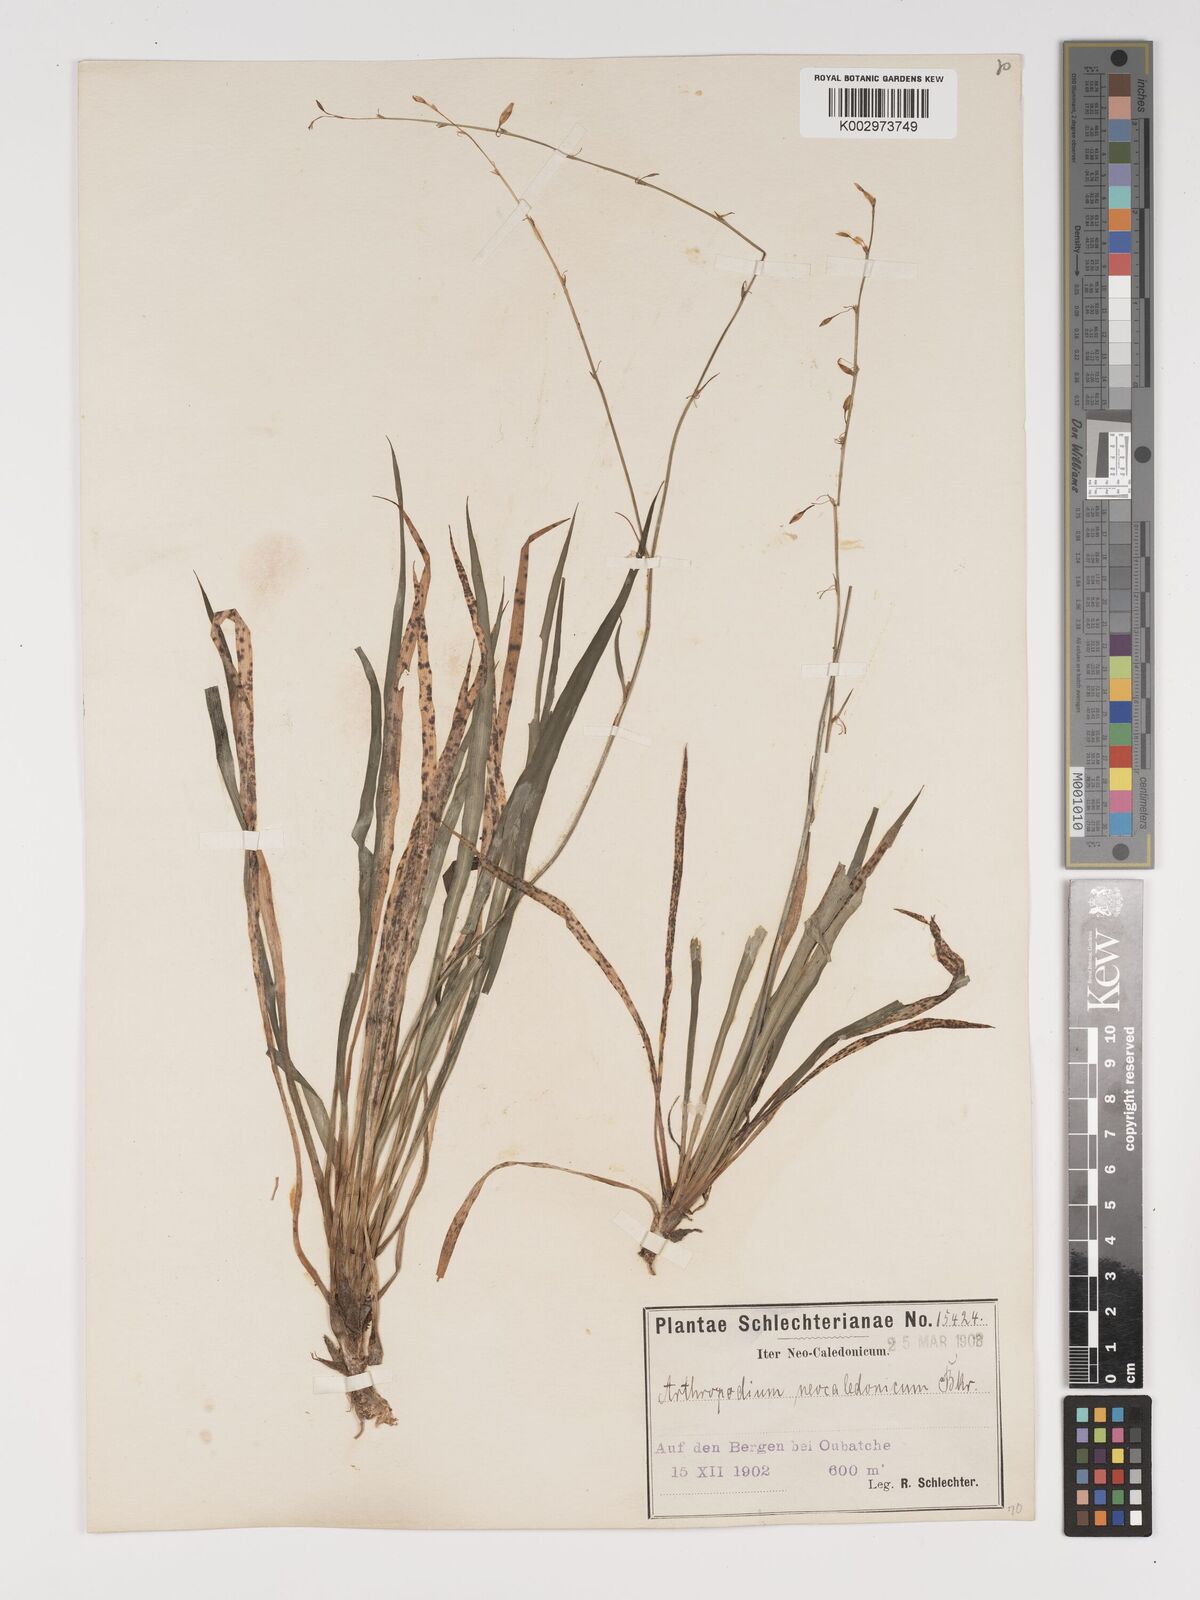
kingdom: Plantae
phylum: Tracheophyta
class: Liliopsida
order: Asparagales
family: Asparagaceae
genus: Arthropodium
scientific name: Arthropodium neocaledonicum
